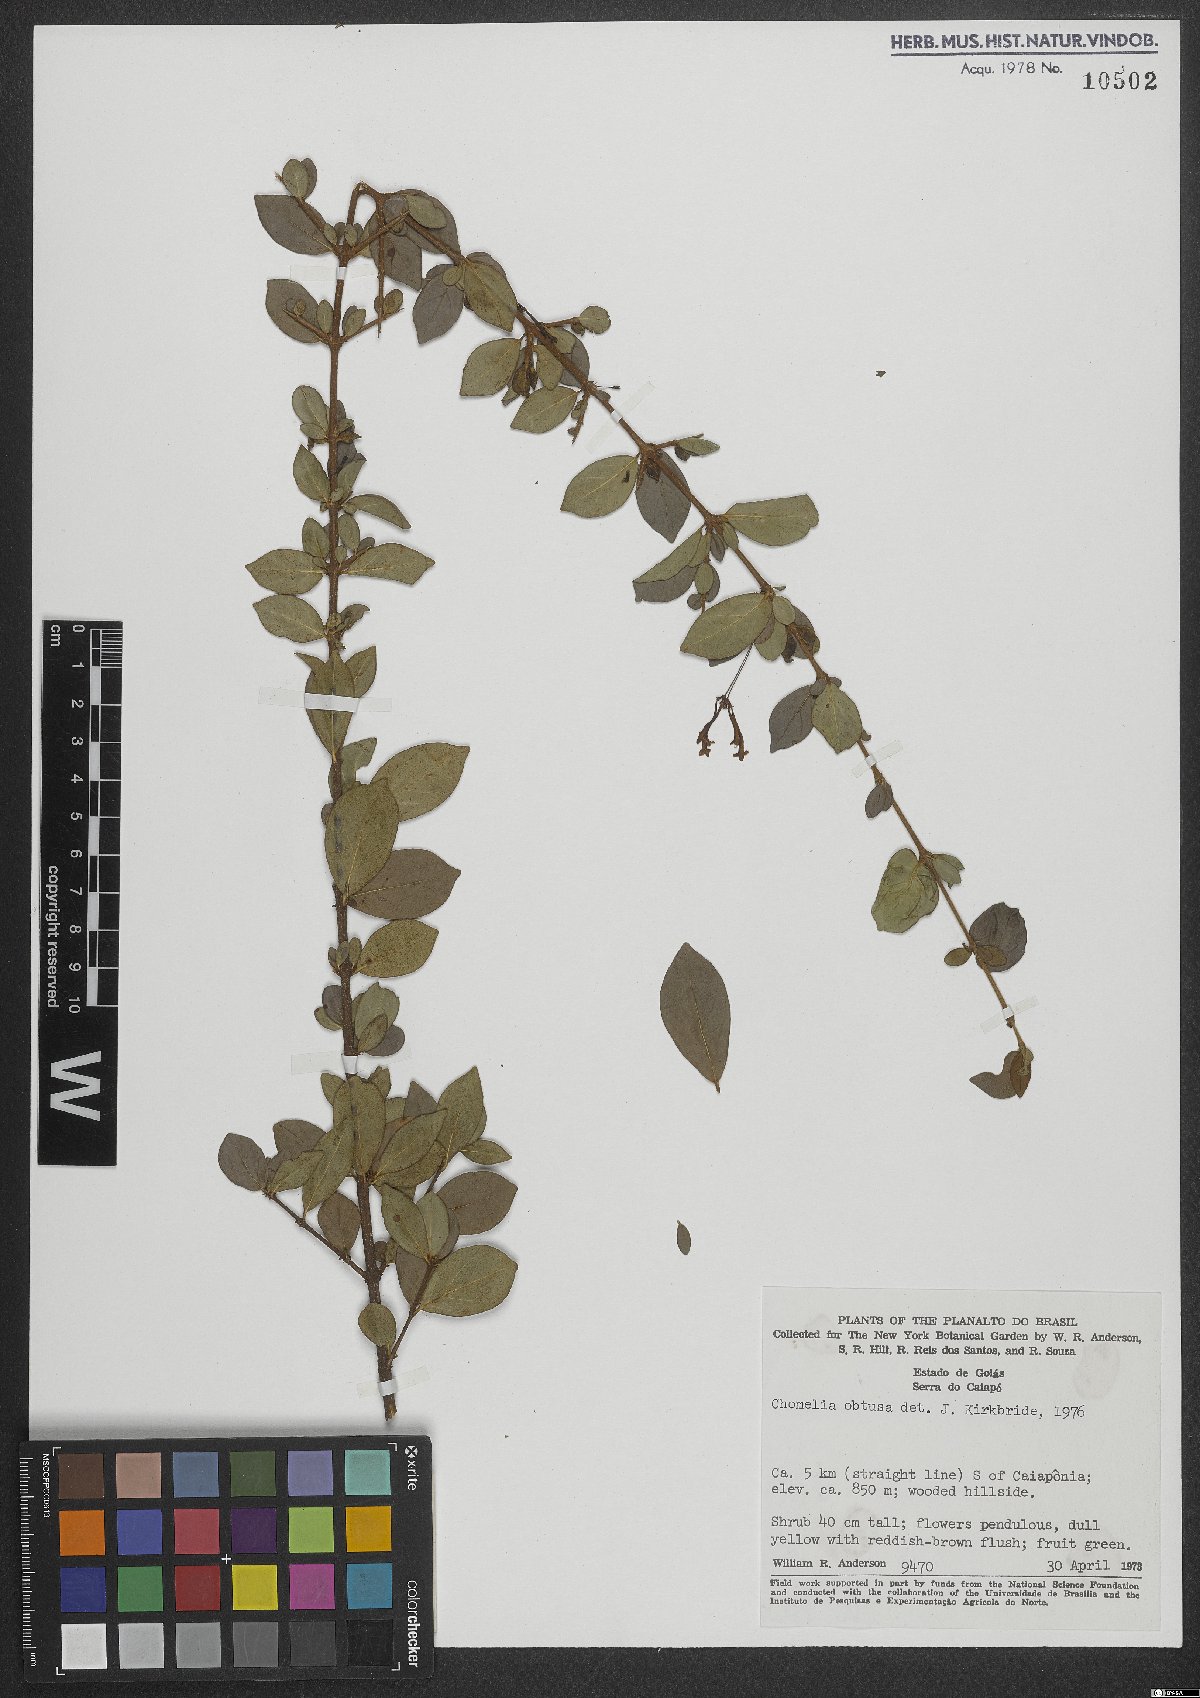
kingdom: Plantae
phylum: Tracheophyta
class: Magnoliopsida
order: Gentianales
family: Rubiaceae
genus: Chomelia
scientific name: Chomelia obtusa
